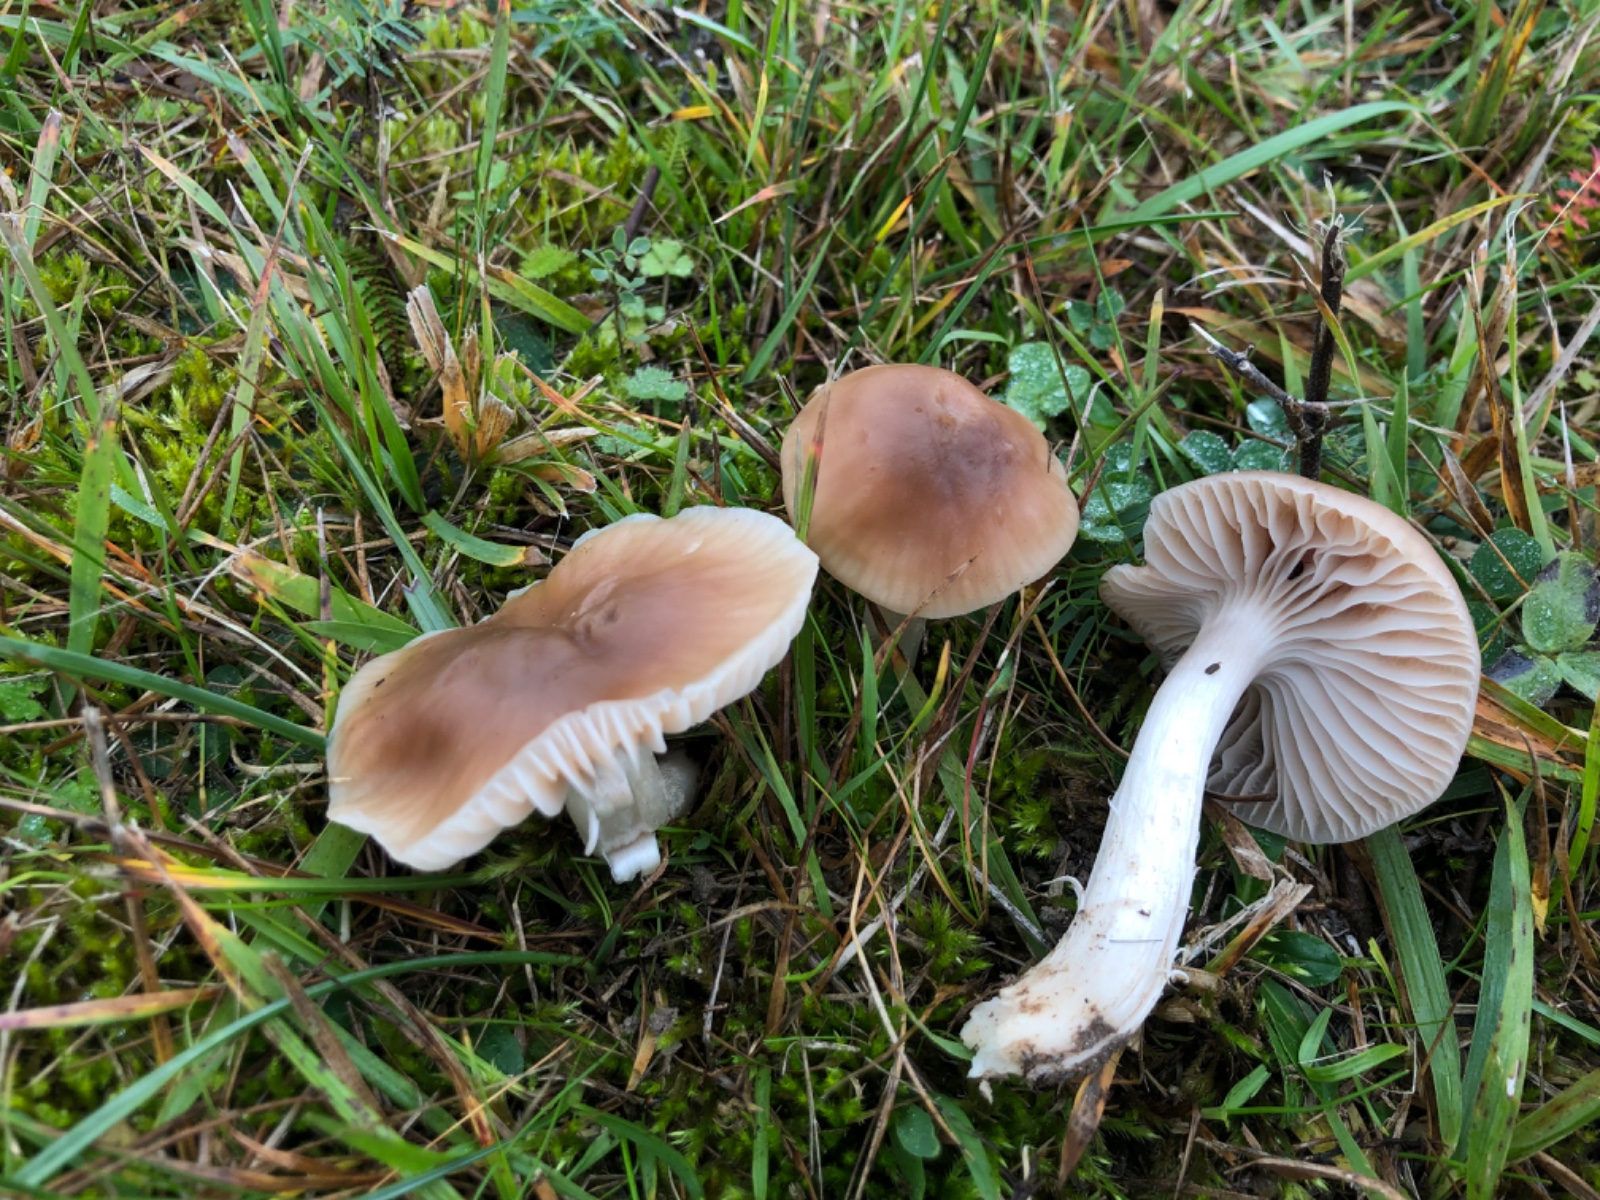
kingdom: Fungi
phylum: Basidiomycota
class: Agaricomycetes
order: Agaricales
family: Hygrophoraceae
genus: Cuphophyllus
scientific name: Cuphophyllus colemannianus
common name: rødbrun vokshat
